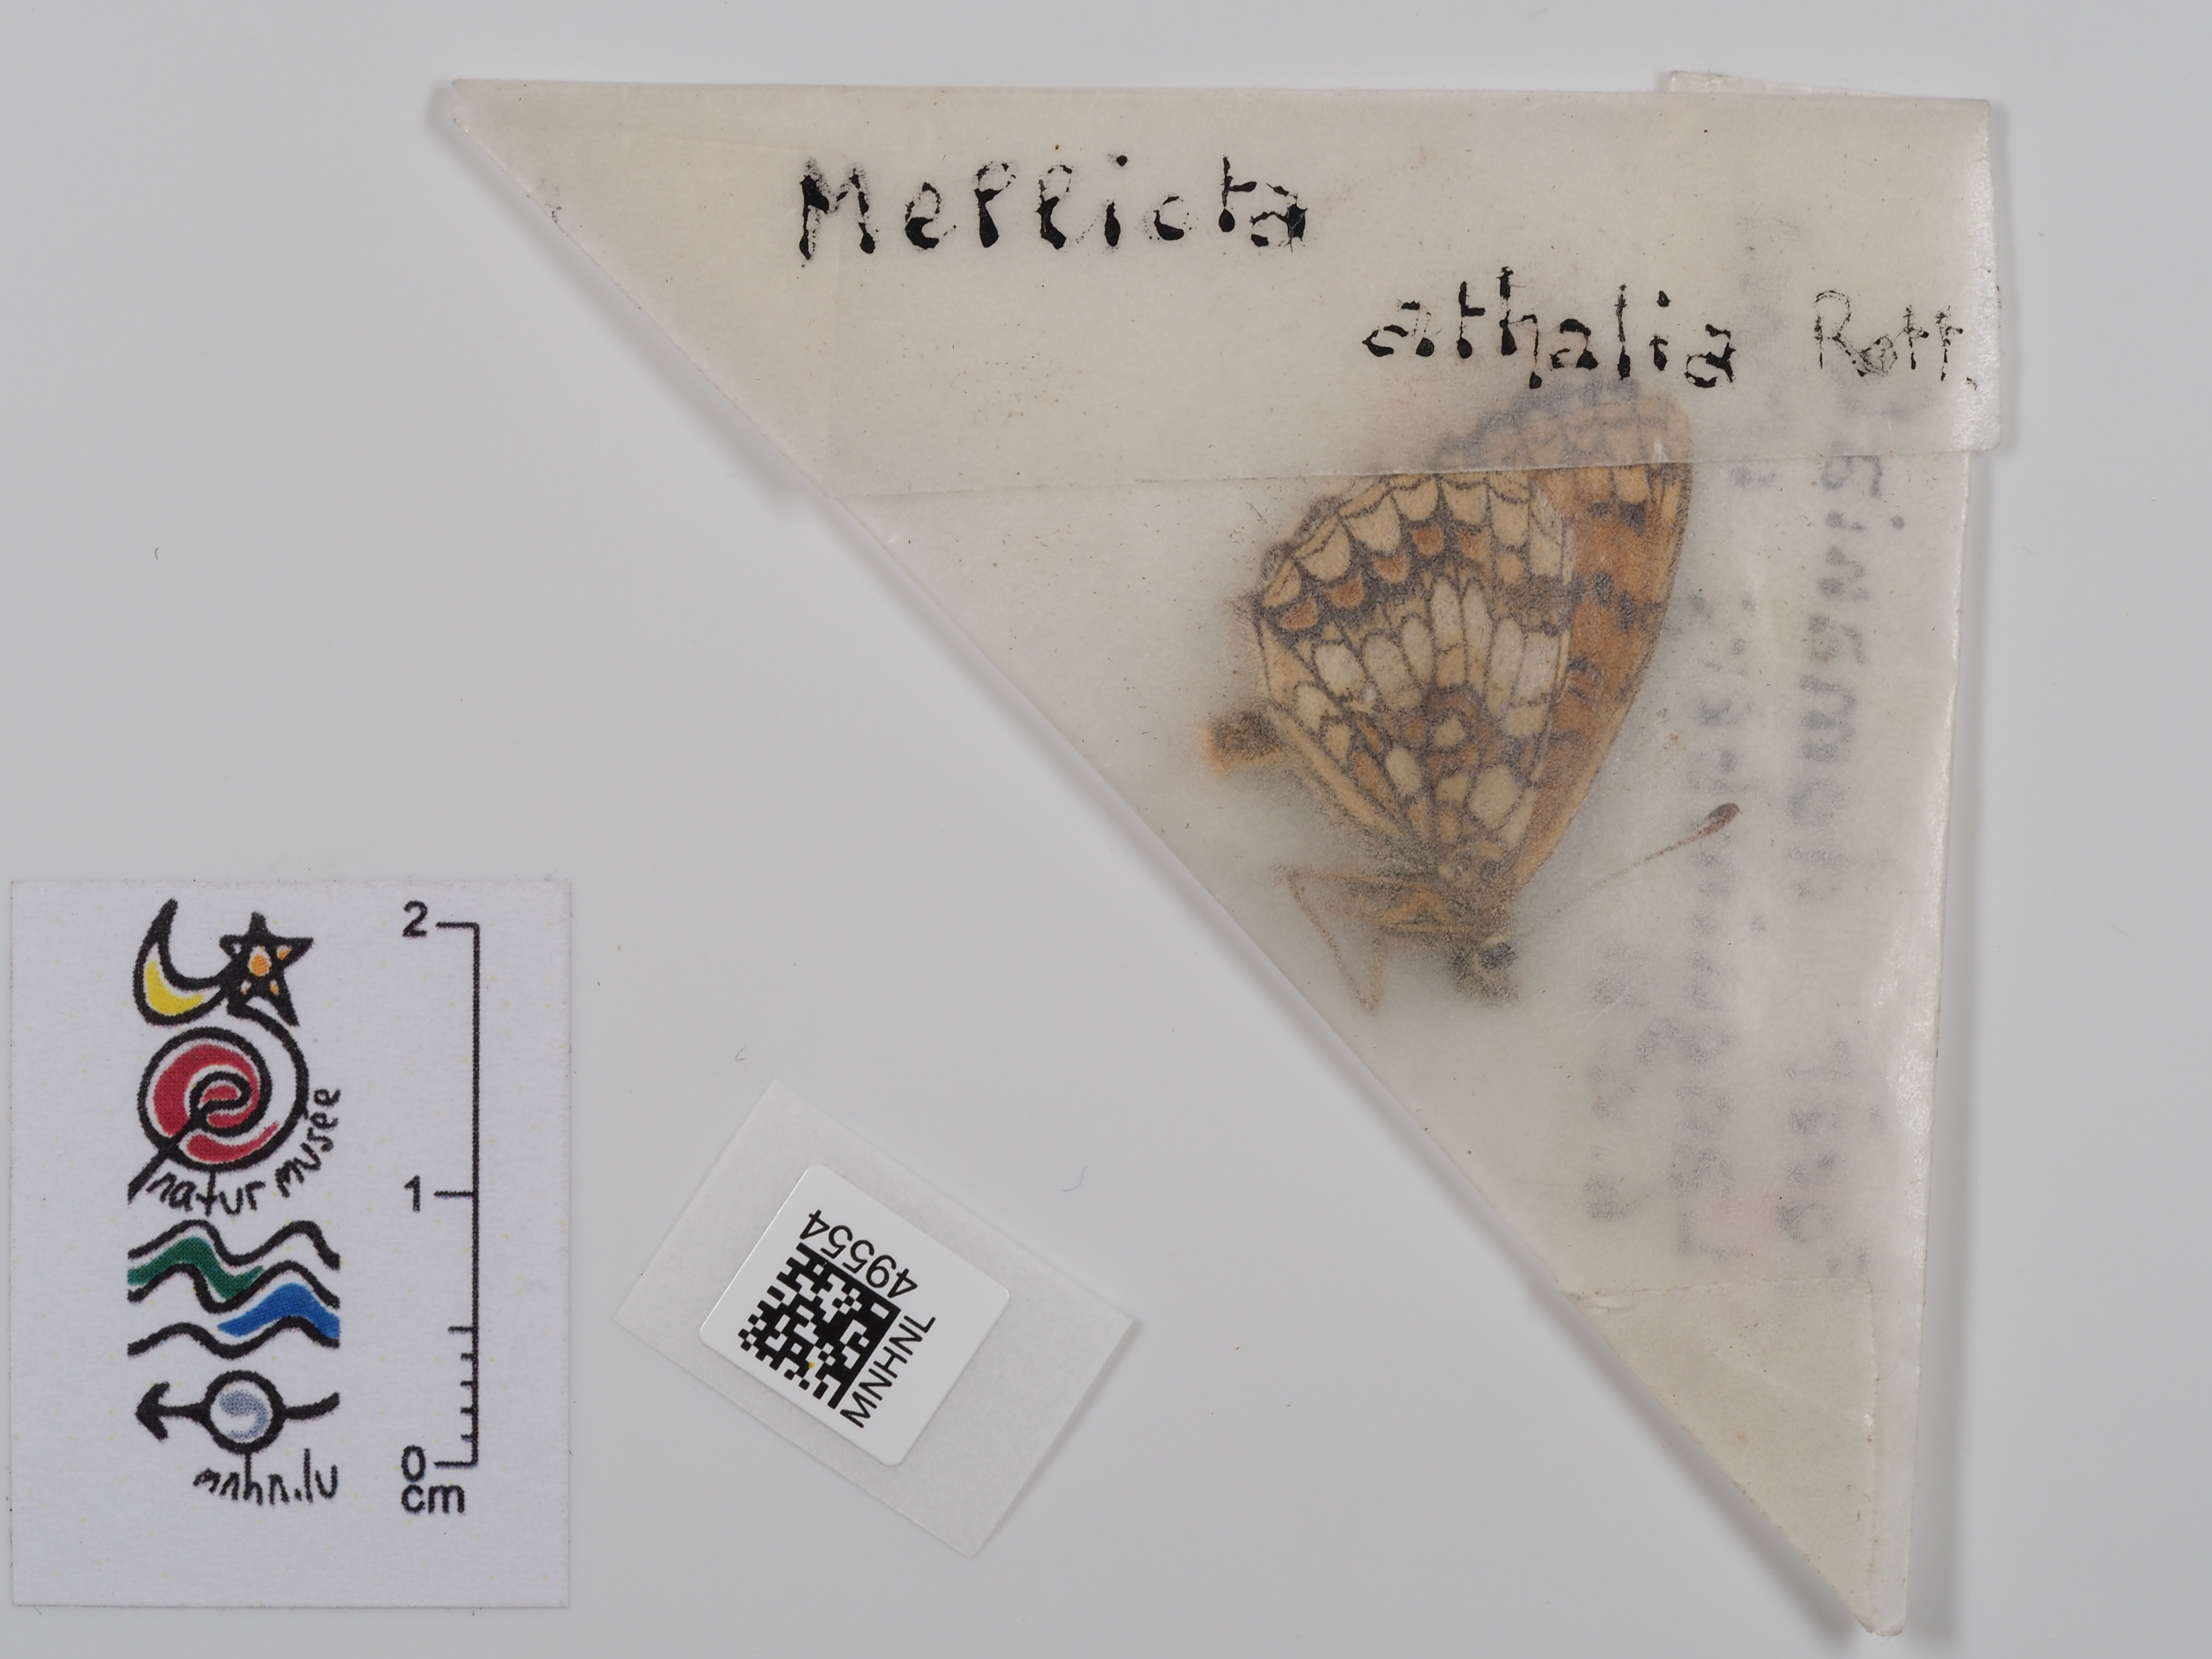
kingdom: Animalia
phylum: Arthropoda
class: Insecta
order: Lepidoptera
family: Nymphalidae
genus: Mellicta
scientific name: Mellicta athalia
